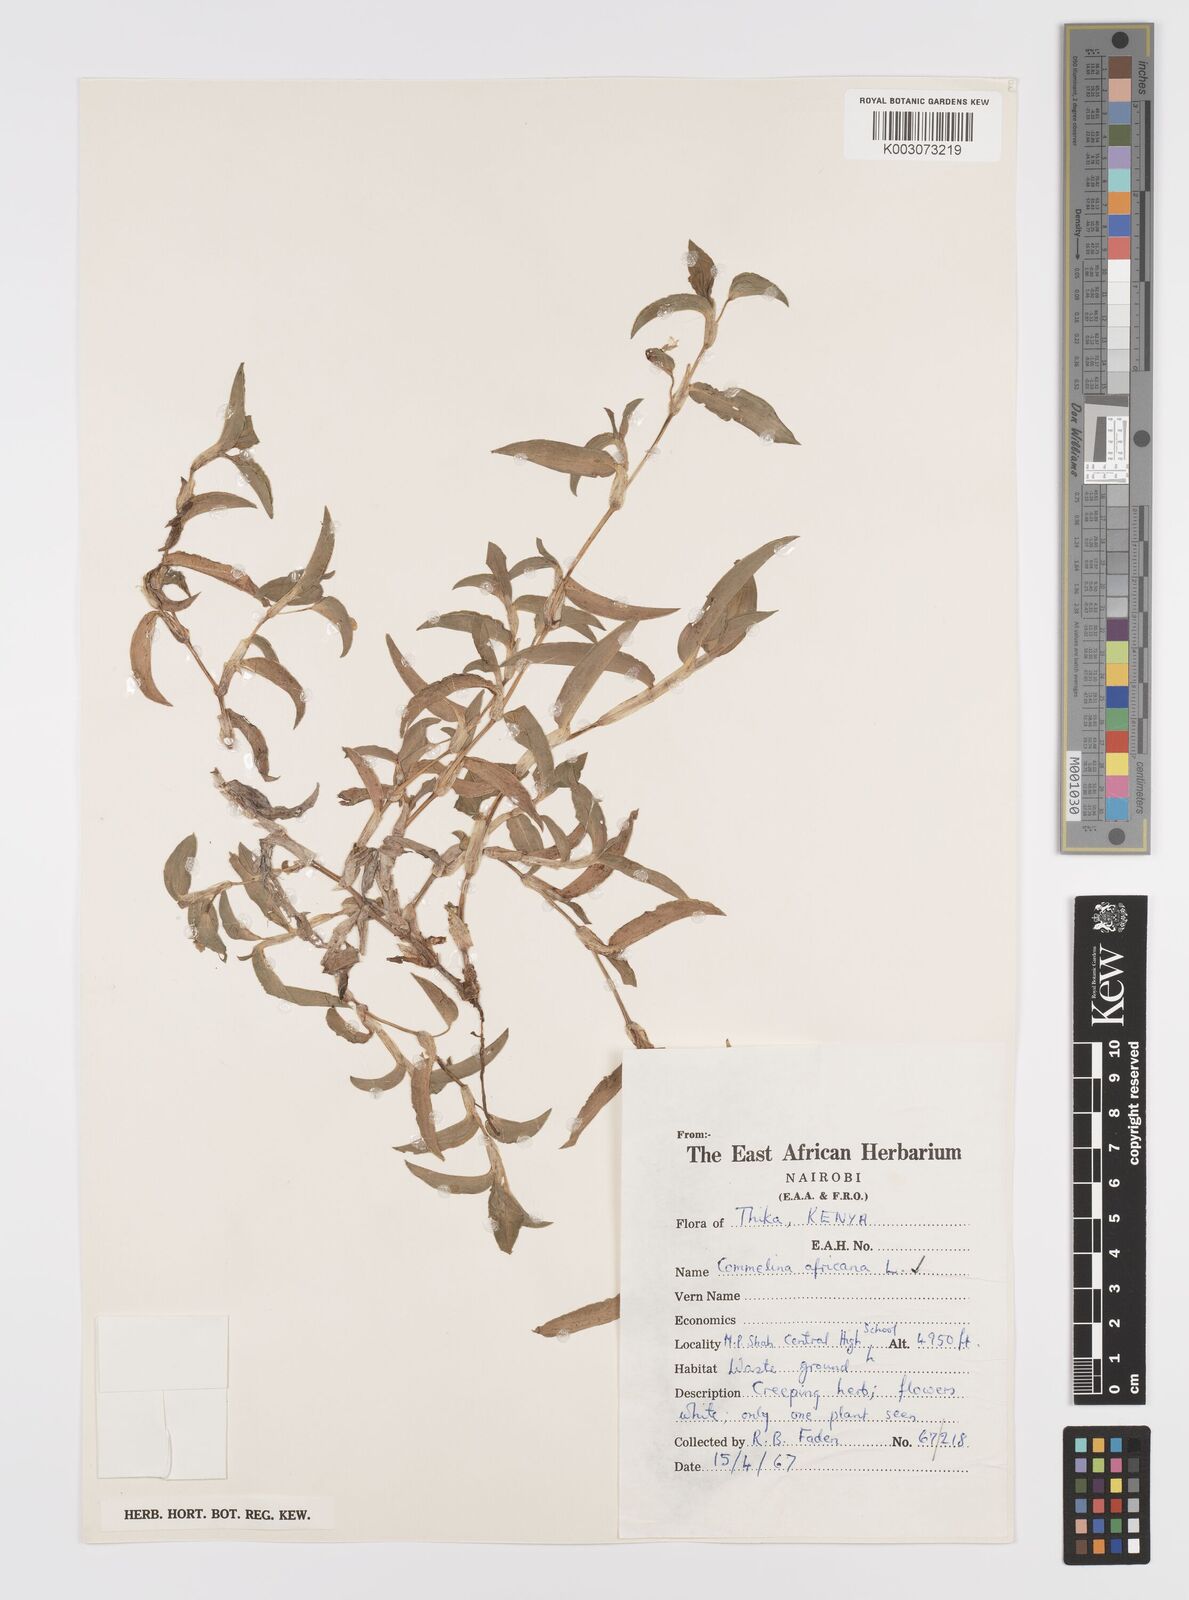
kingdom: Plantae
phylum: Tracheophyta
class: Liliopsida
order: Commelinales
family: Commelinaceae
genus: Commelina
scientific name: Commelina africana
